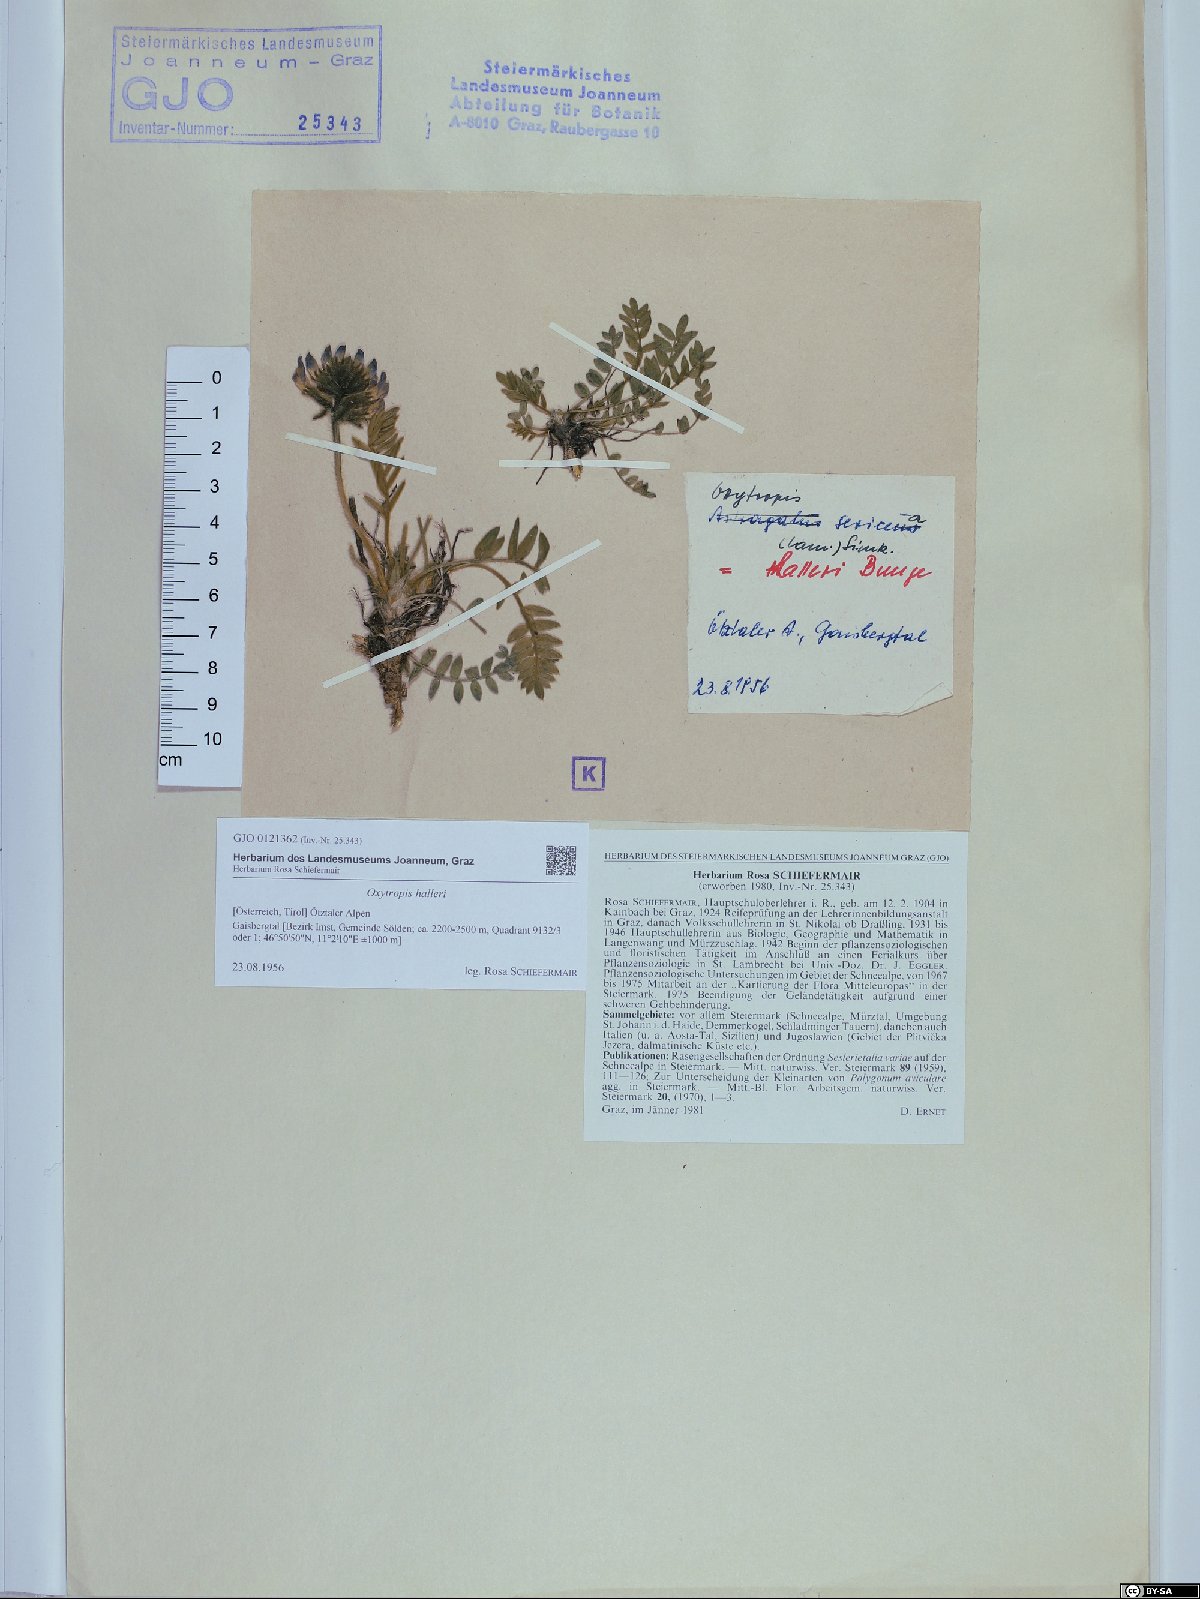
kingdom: Plantae
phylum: Tracheophyta
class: Magnoliopsida
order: Fabales
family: Fabaceae
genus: Oxytropis
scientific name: Oxytropis halleri
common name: Purple oxytropis
